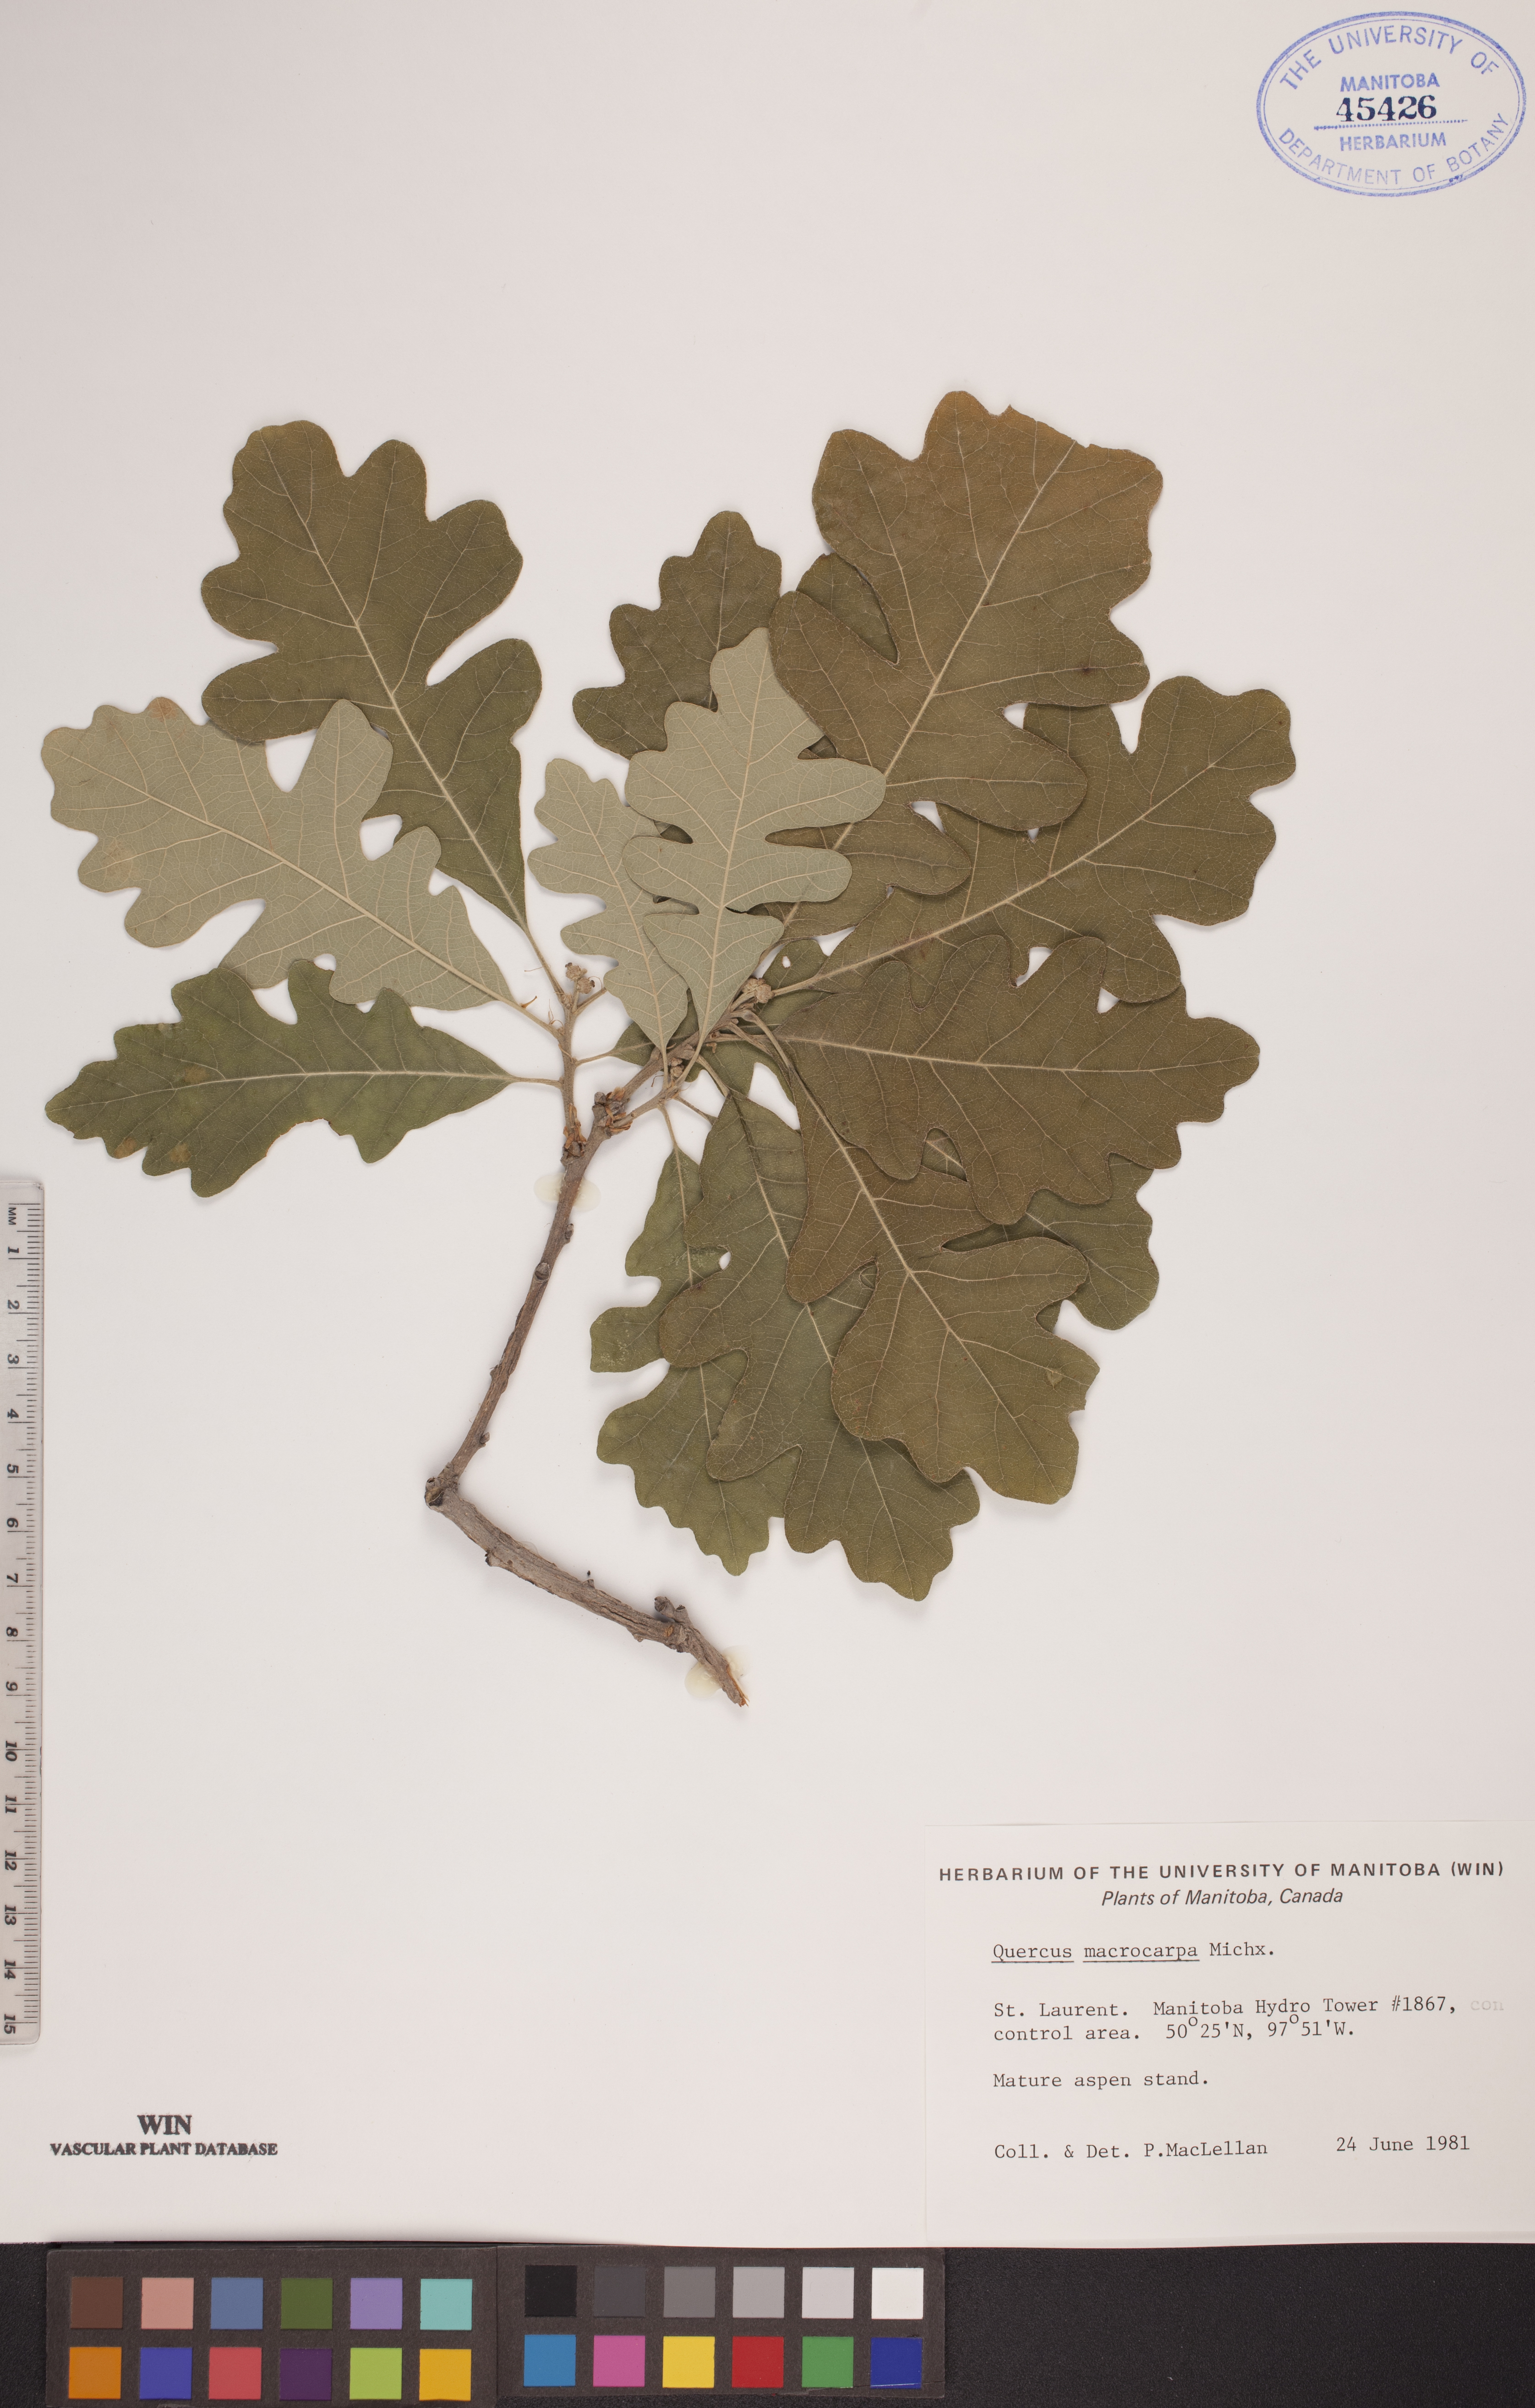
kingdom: Plantae
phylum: Tracheophyta
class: Magnoliopsida
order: Fagales
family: Fagaceae
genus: Quercus
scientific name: Quercus macrocarpa
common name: Bur oak
